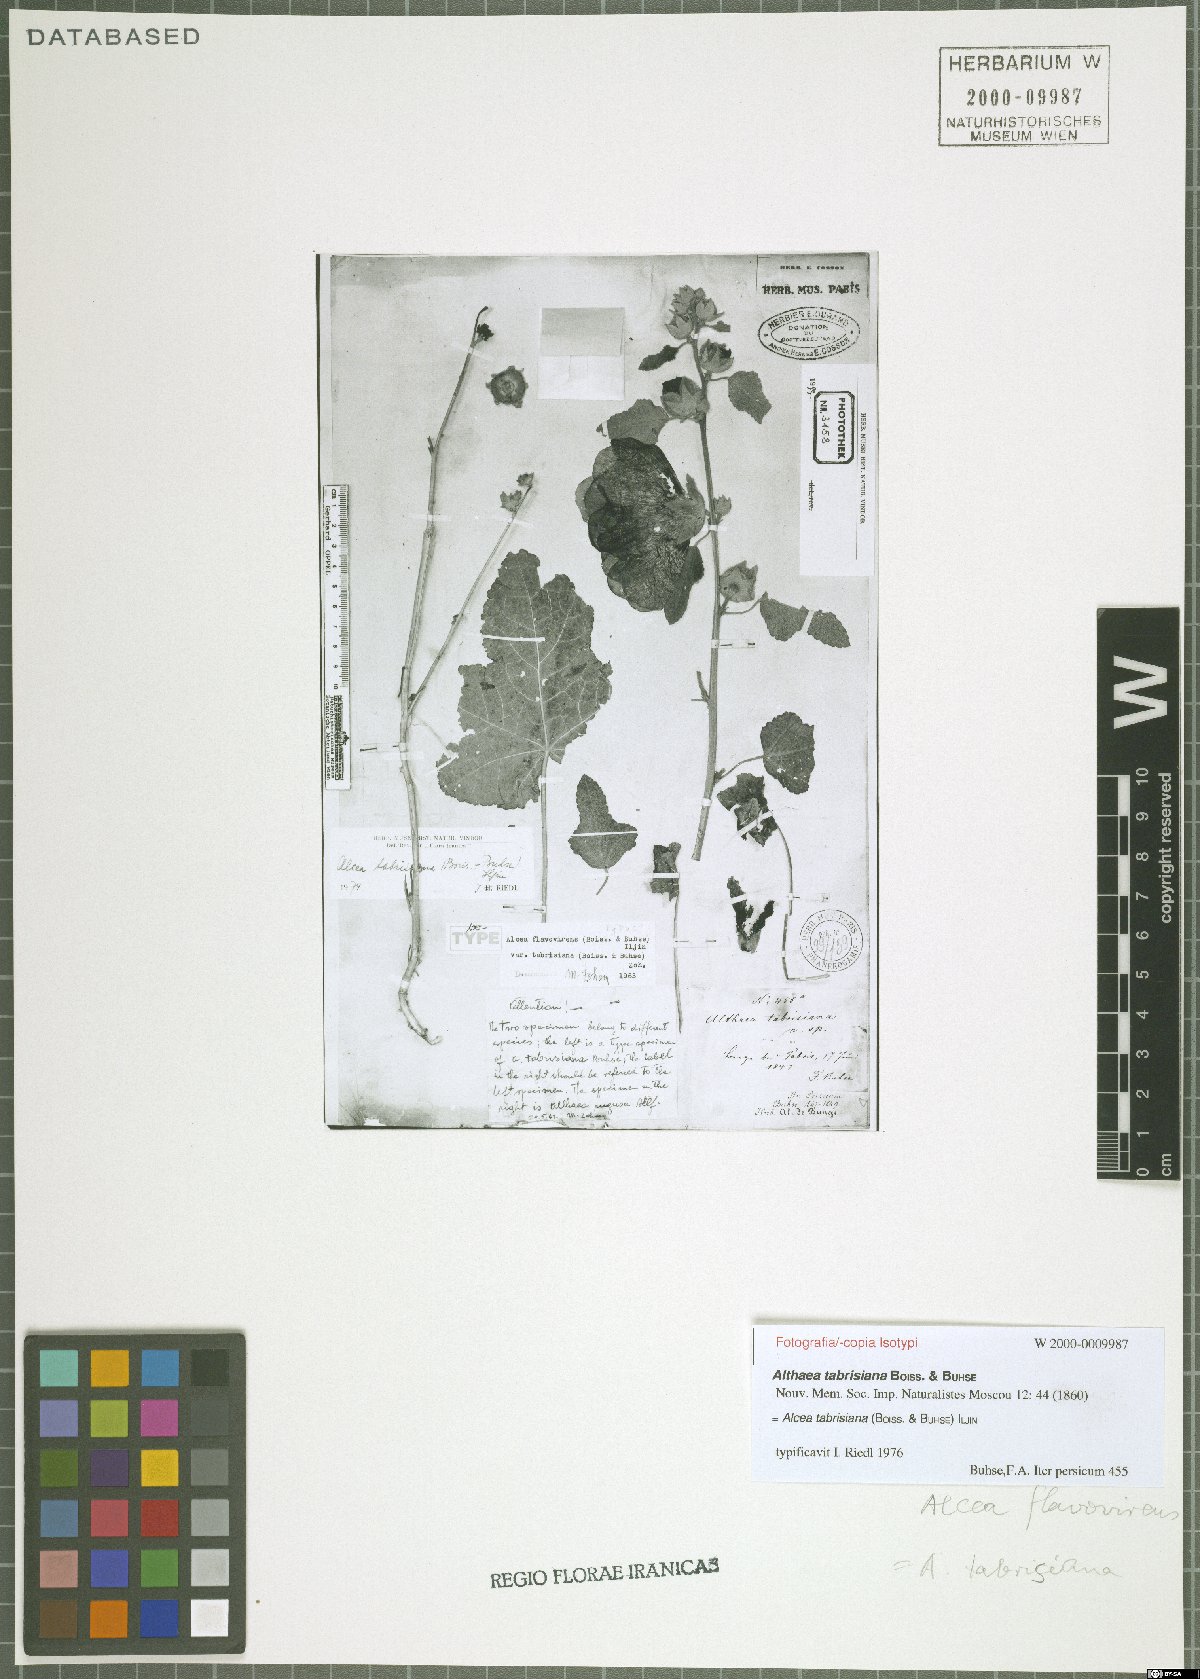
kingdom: Plantae
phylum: Tracheophyta
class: Magnoliopsida
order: Malvales
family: Malvaceae
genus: Alcea
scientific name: Alcea tabrisiana
